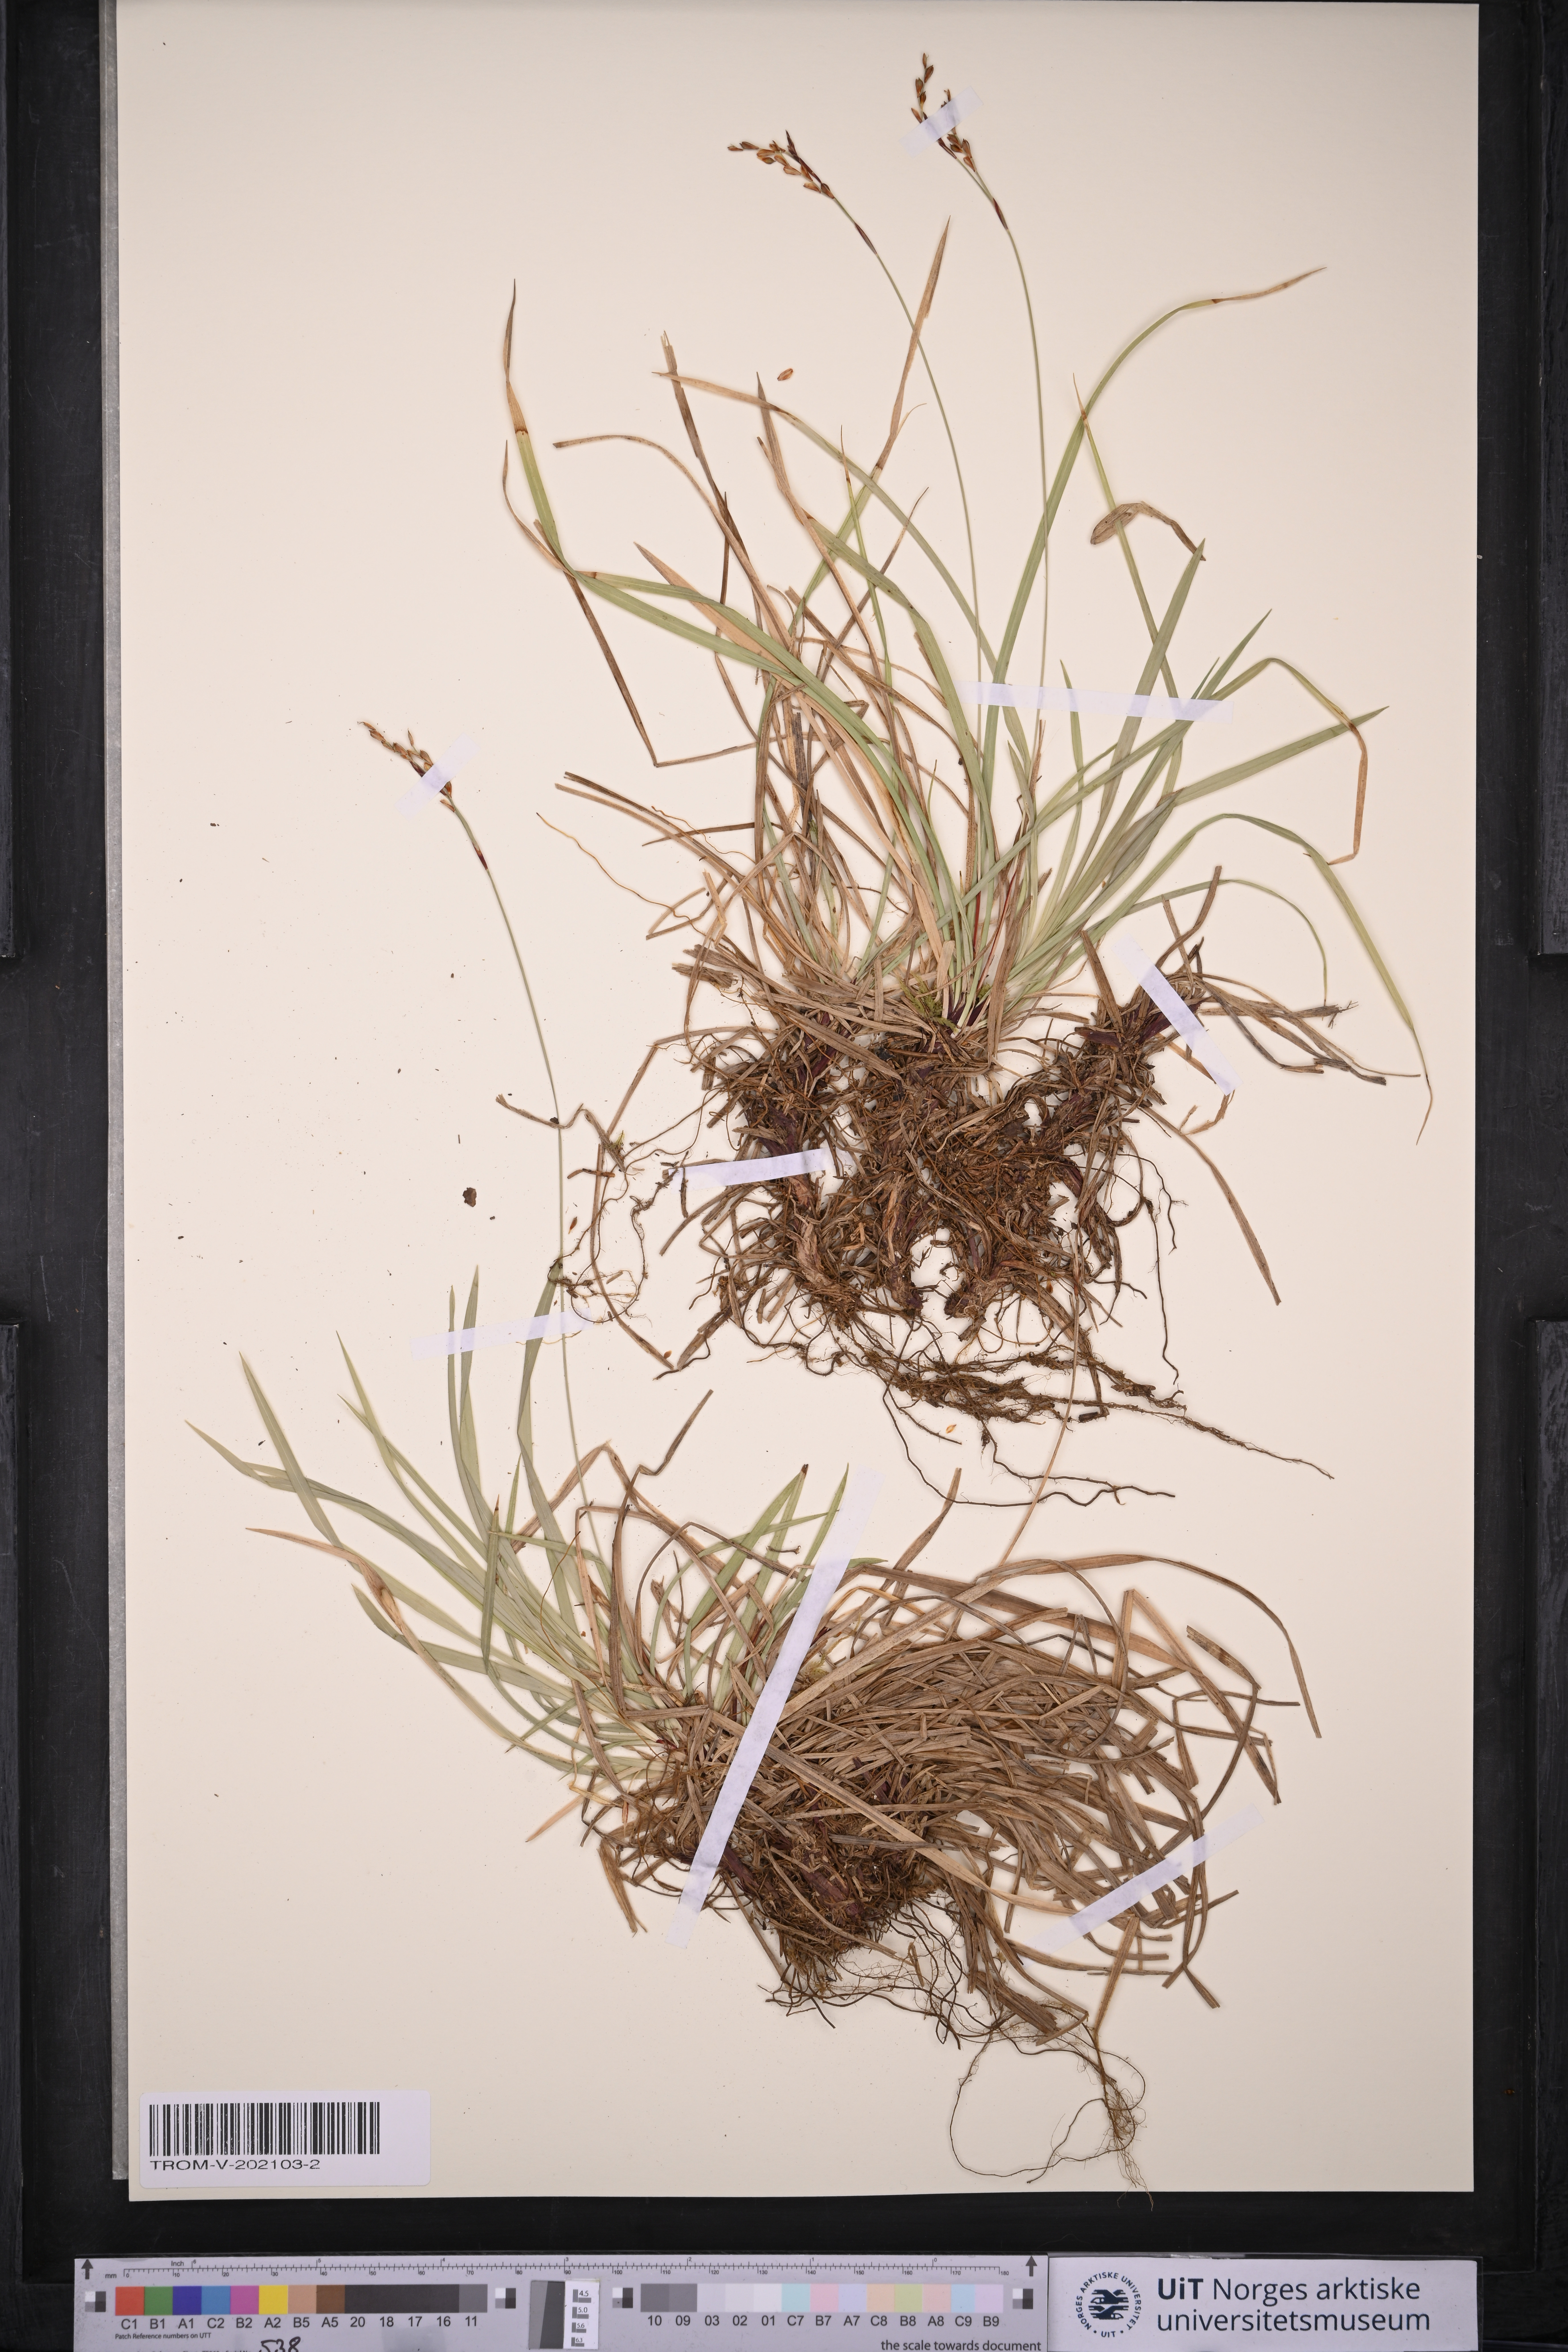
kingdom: Plantae
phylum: Tracheophyta
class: Liliopsida
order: Poales
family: Cyperaceae
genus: Carex
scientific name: Carex digitata
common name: Fingered sedge
